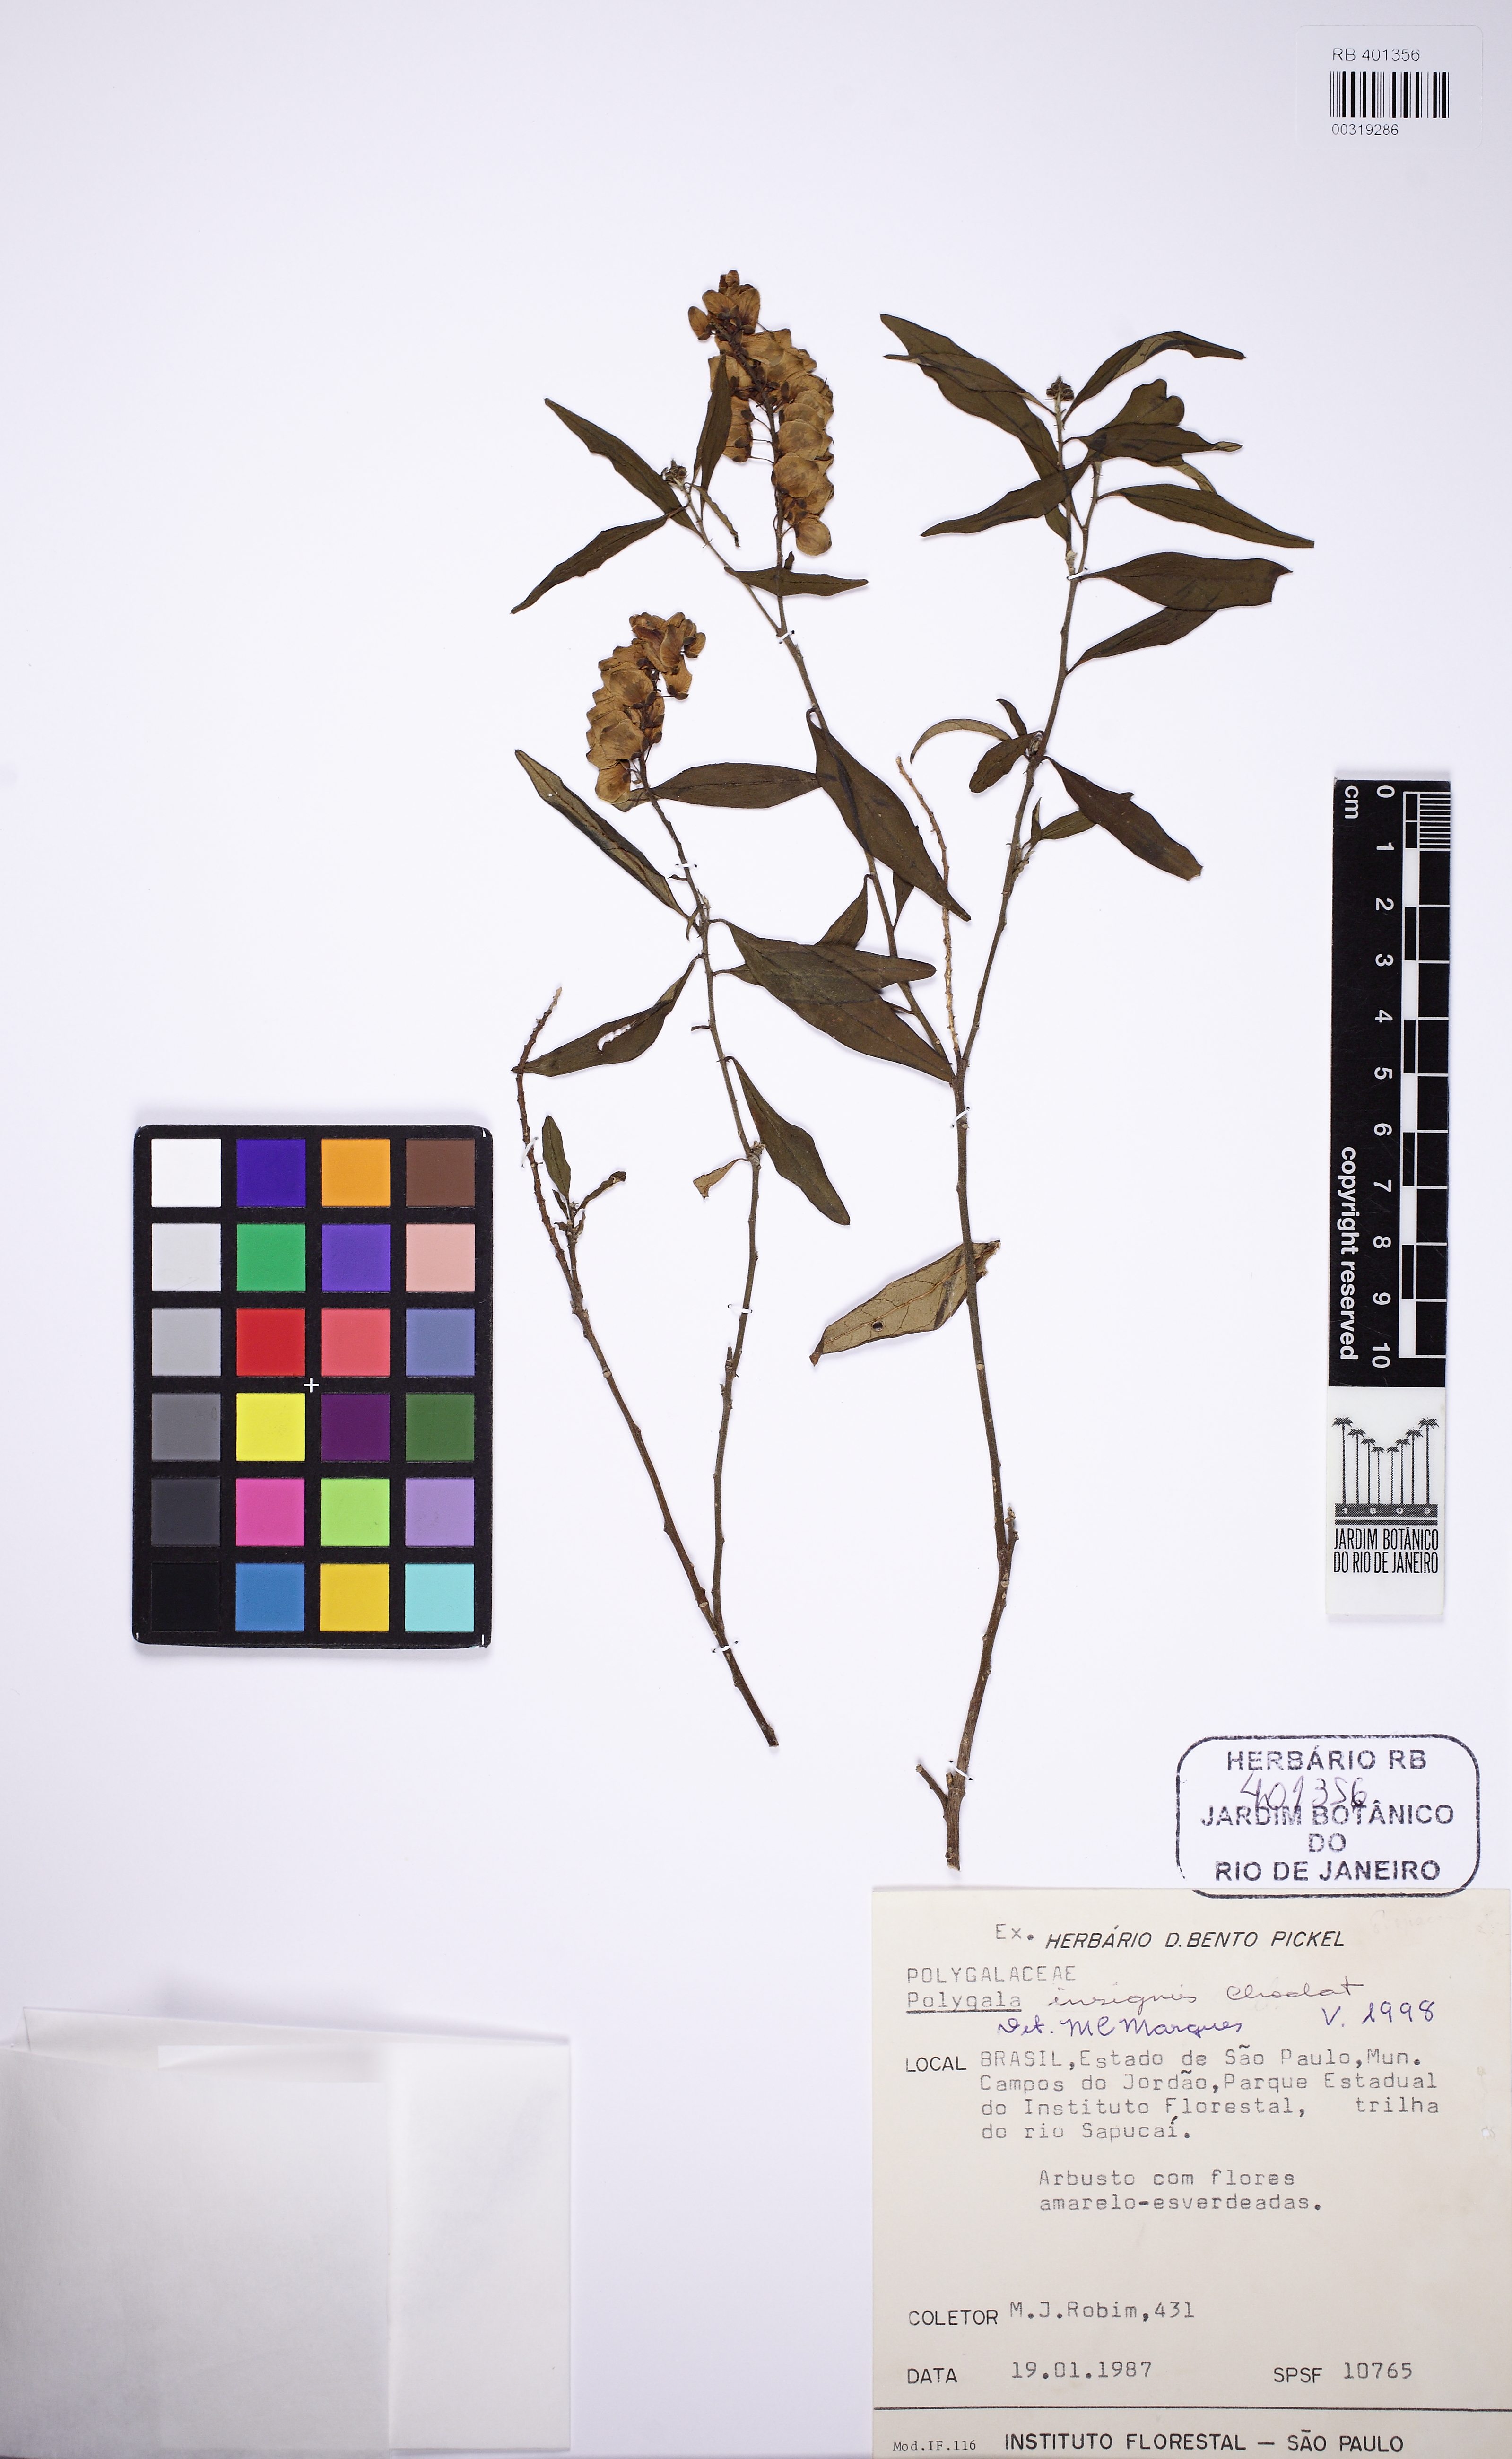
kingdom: Plantae
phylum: Tracheophyta
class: Magnoliopsida
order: Fabales
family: Polygalaceae
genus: Caamembeca
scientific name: Caamembeca insignis
